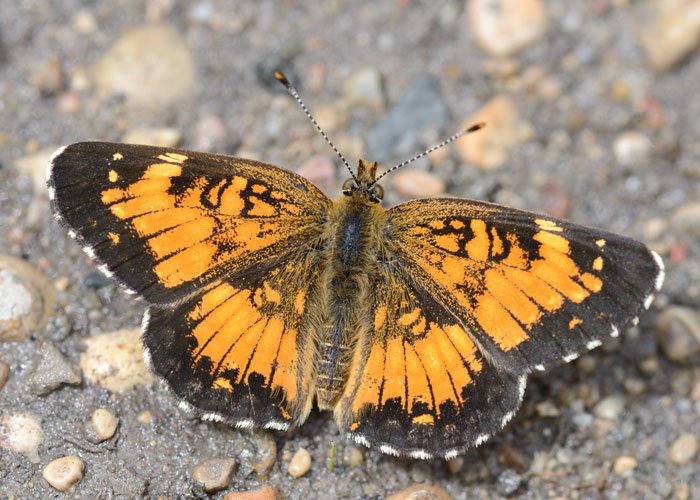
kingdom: Animalia
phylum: Arthropoda
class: Insecta
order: Lepidoptera
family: Nymphalidae
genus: Chlosyne
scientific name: Chlosyne harrisii
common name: Harris's Checkerspot
